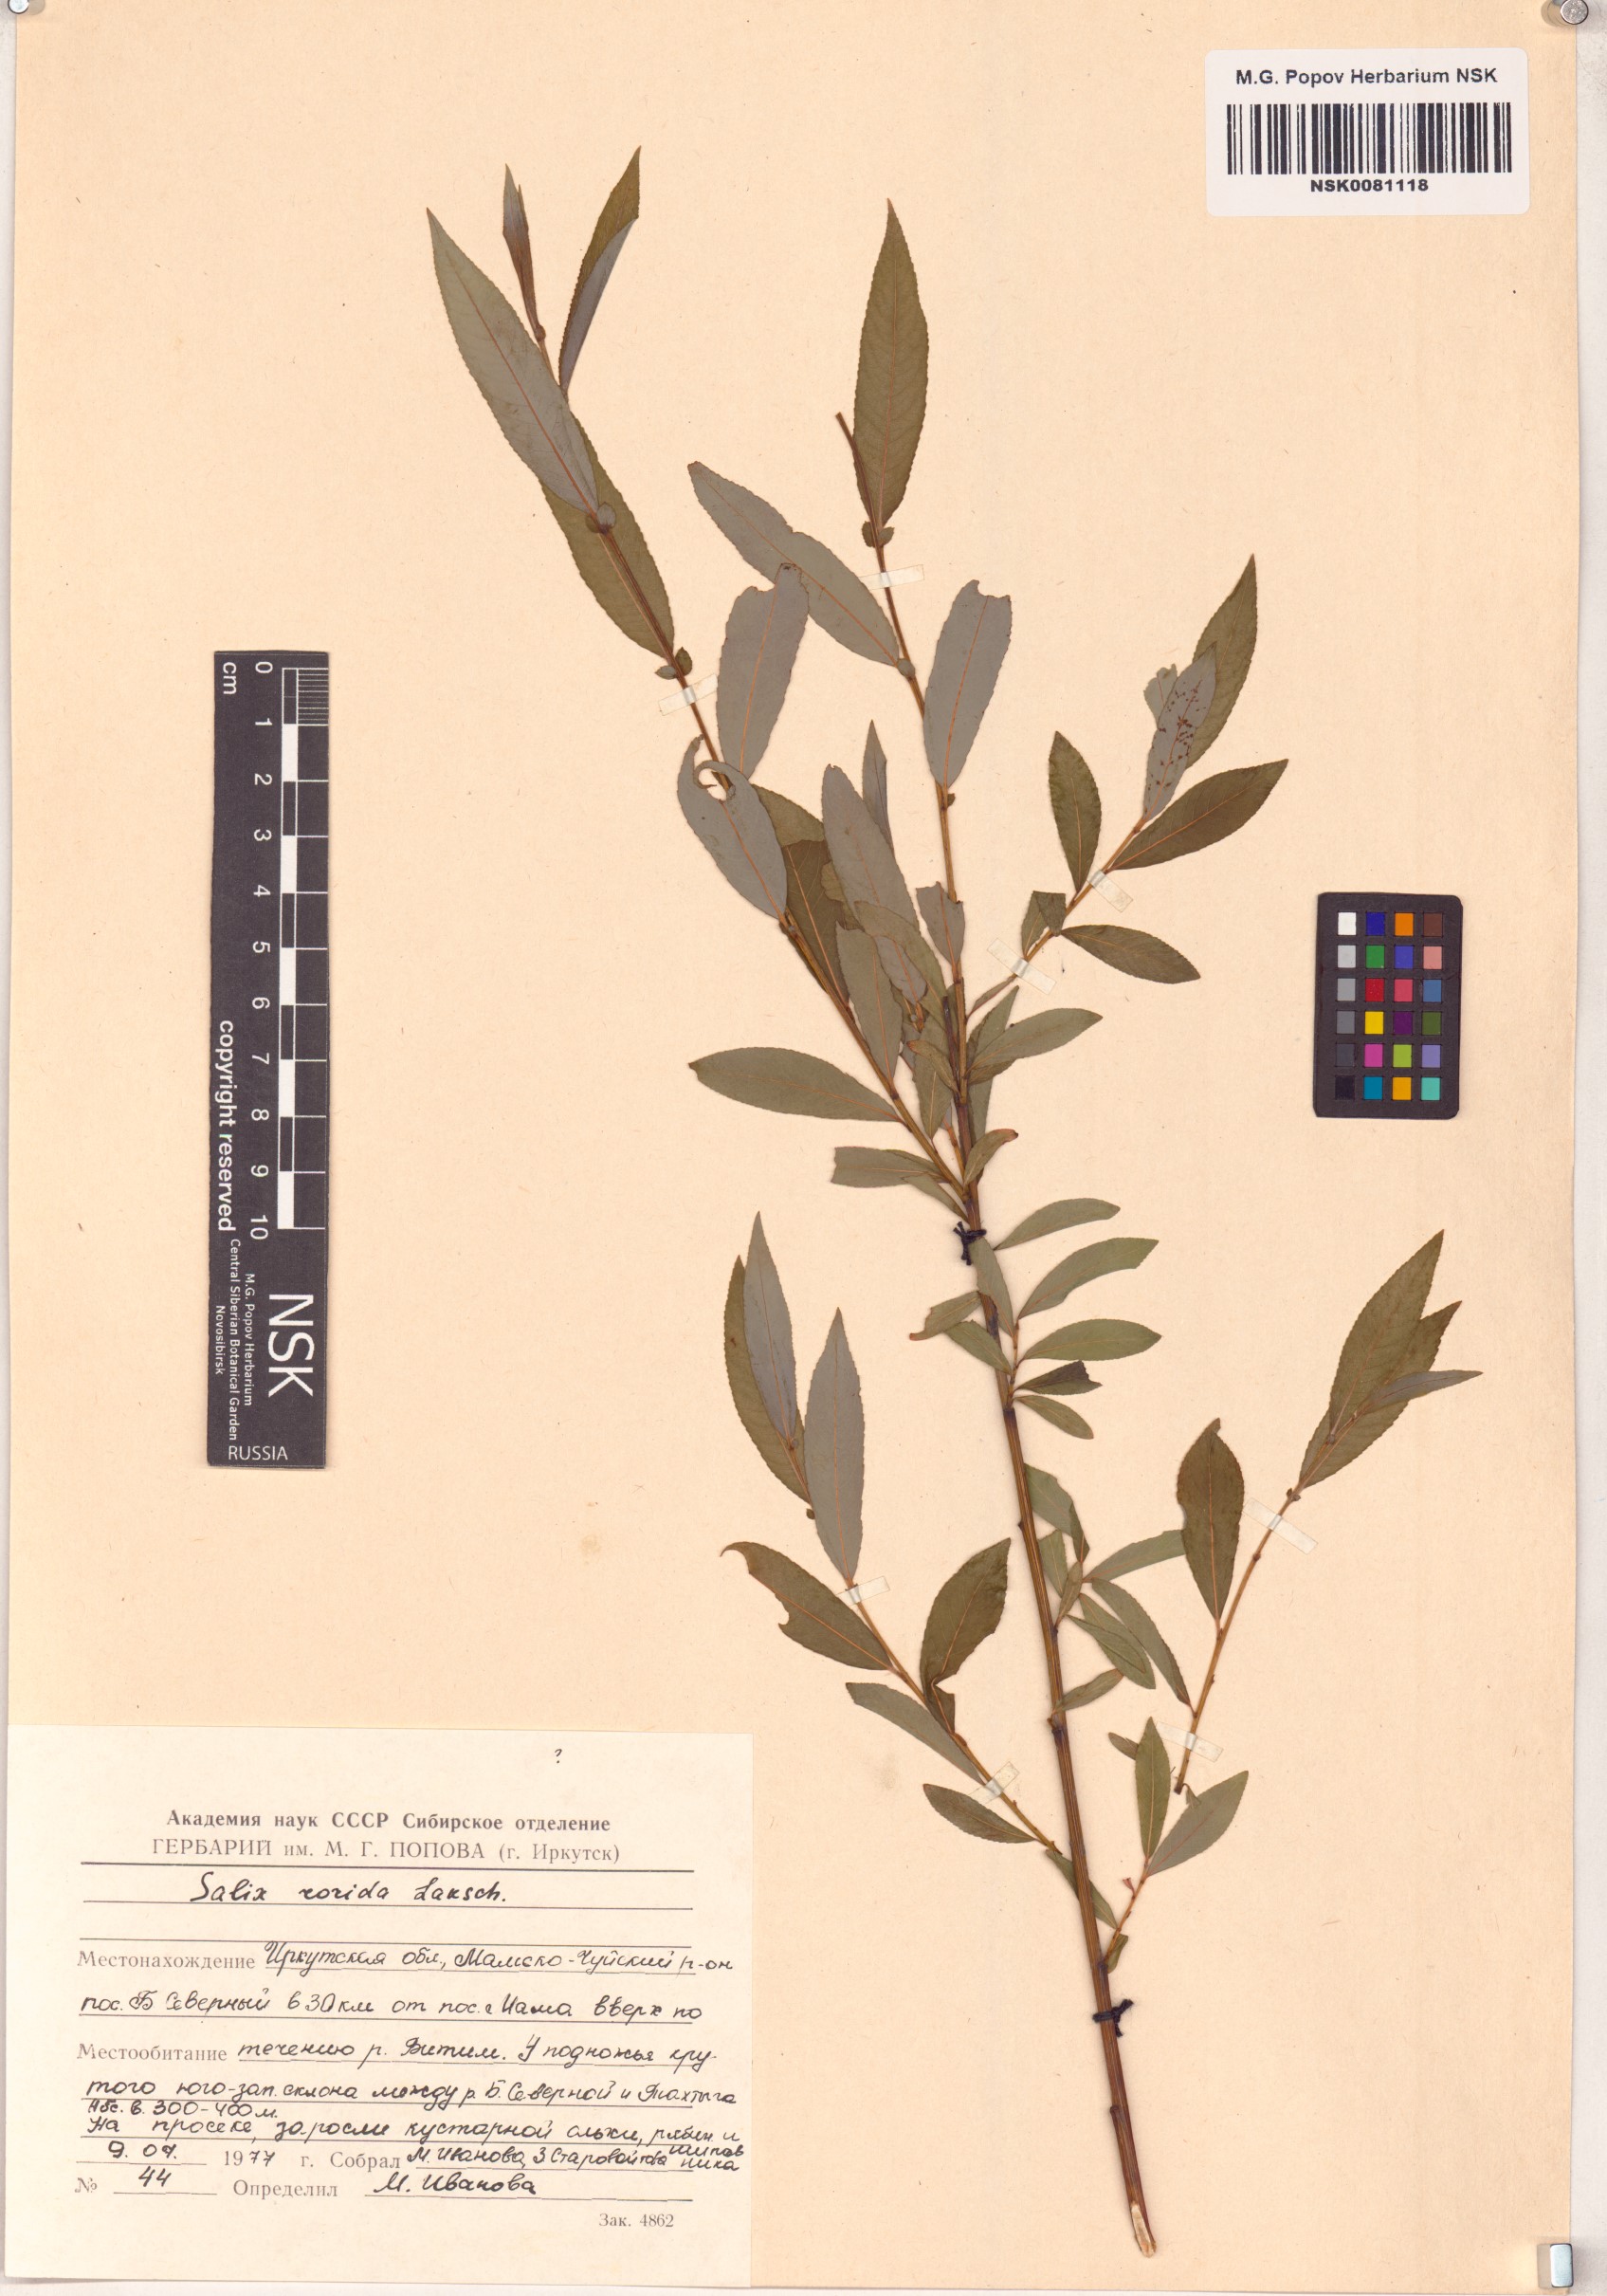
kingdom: Plantae
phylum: Tracheophyta
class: Magnoliopsida
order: Malpighiales
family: Salicaceae
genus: Salix
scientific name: Salix rorida
